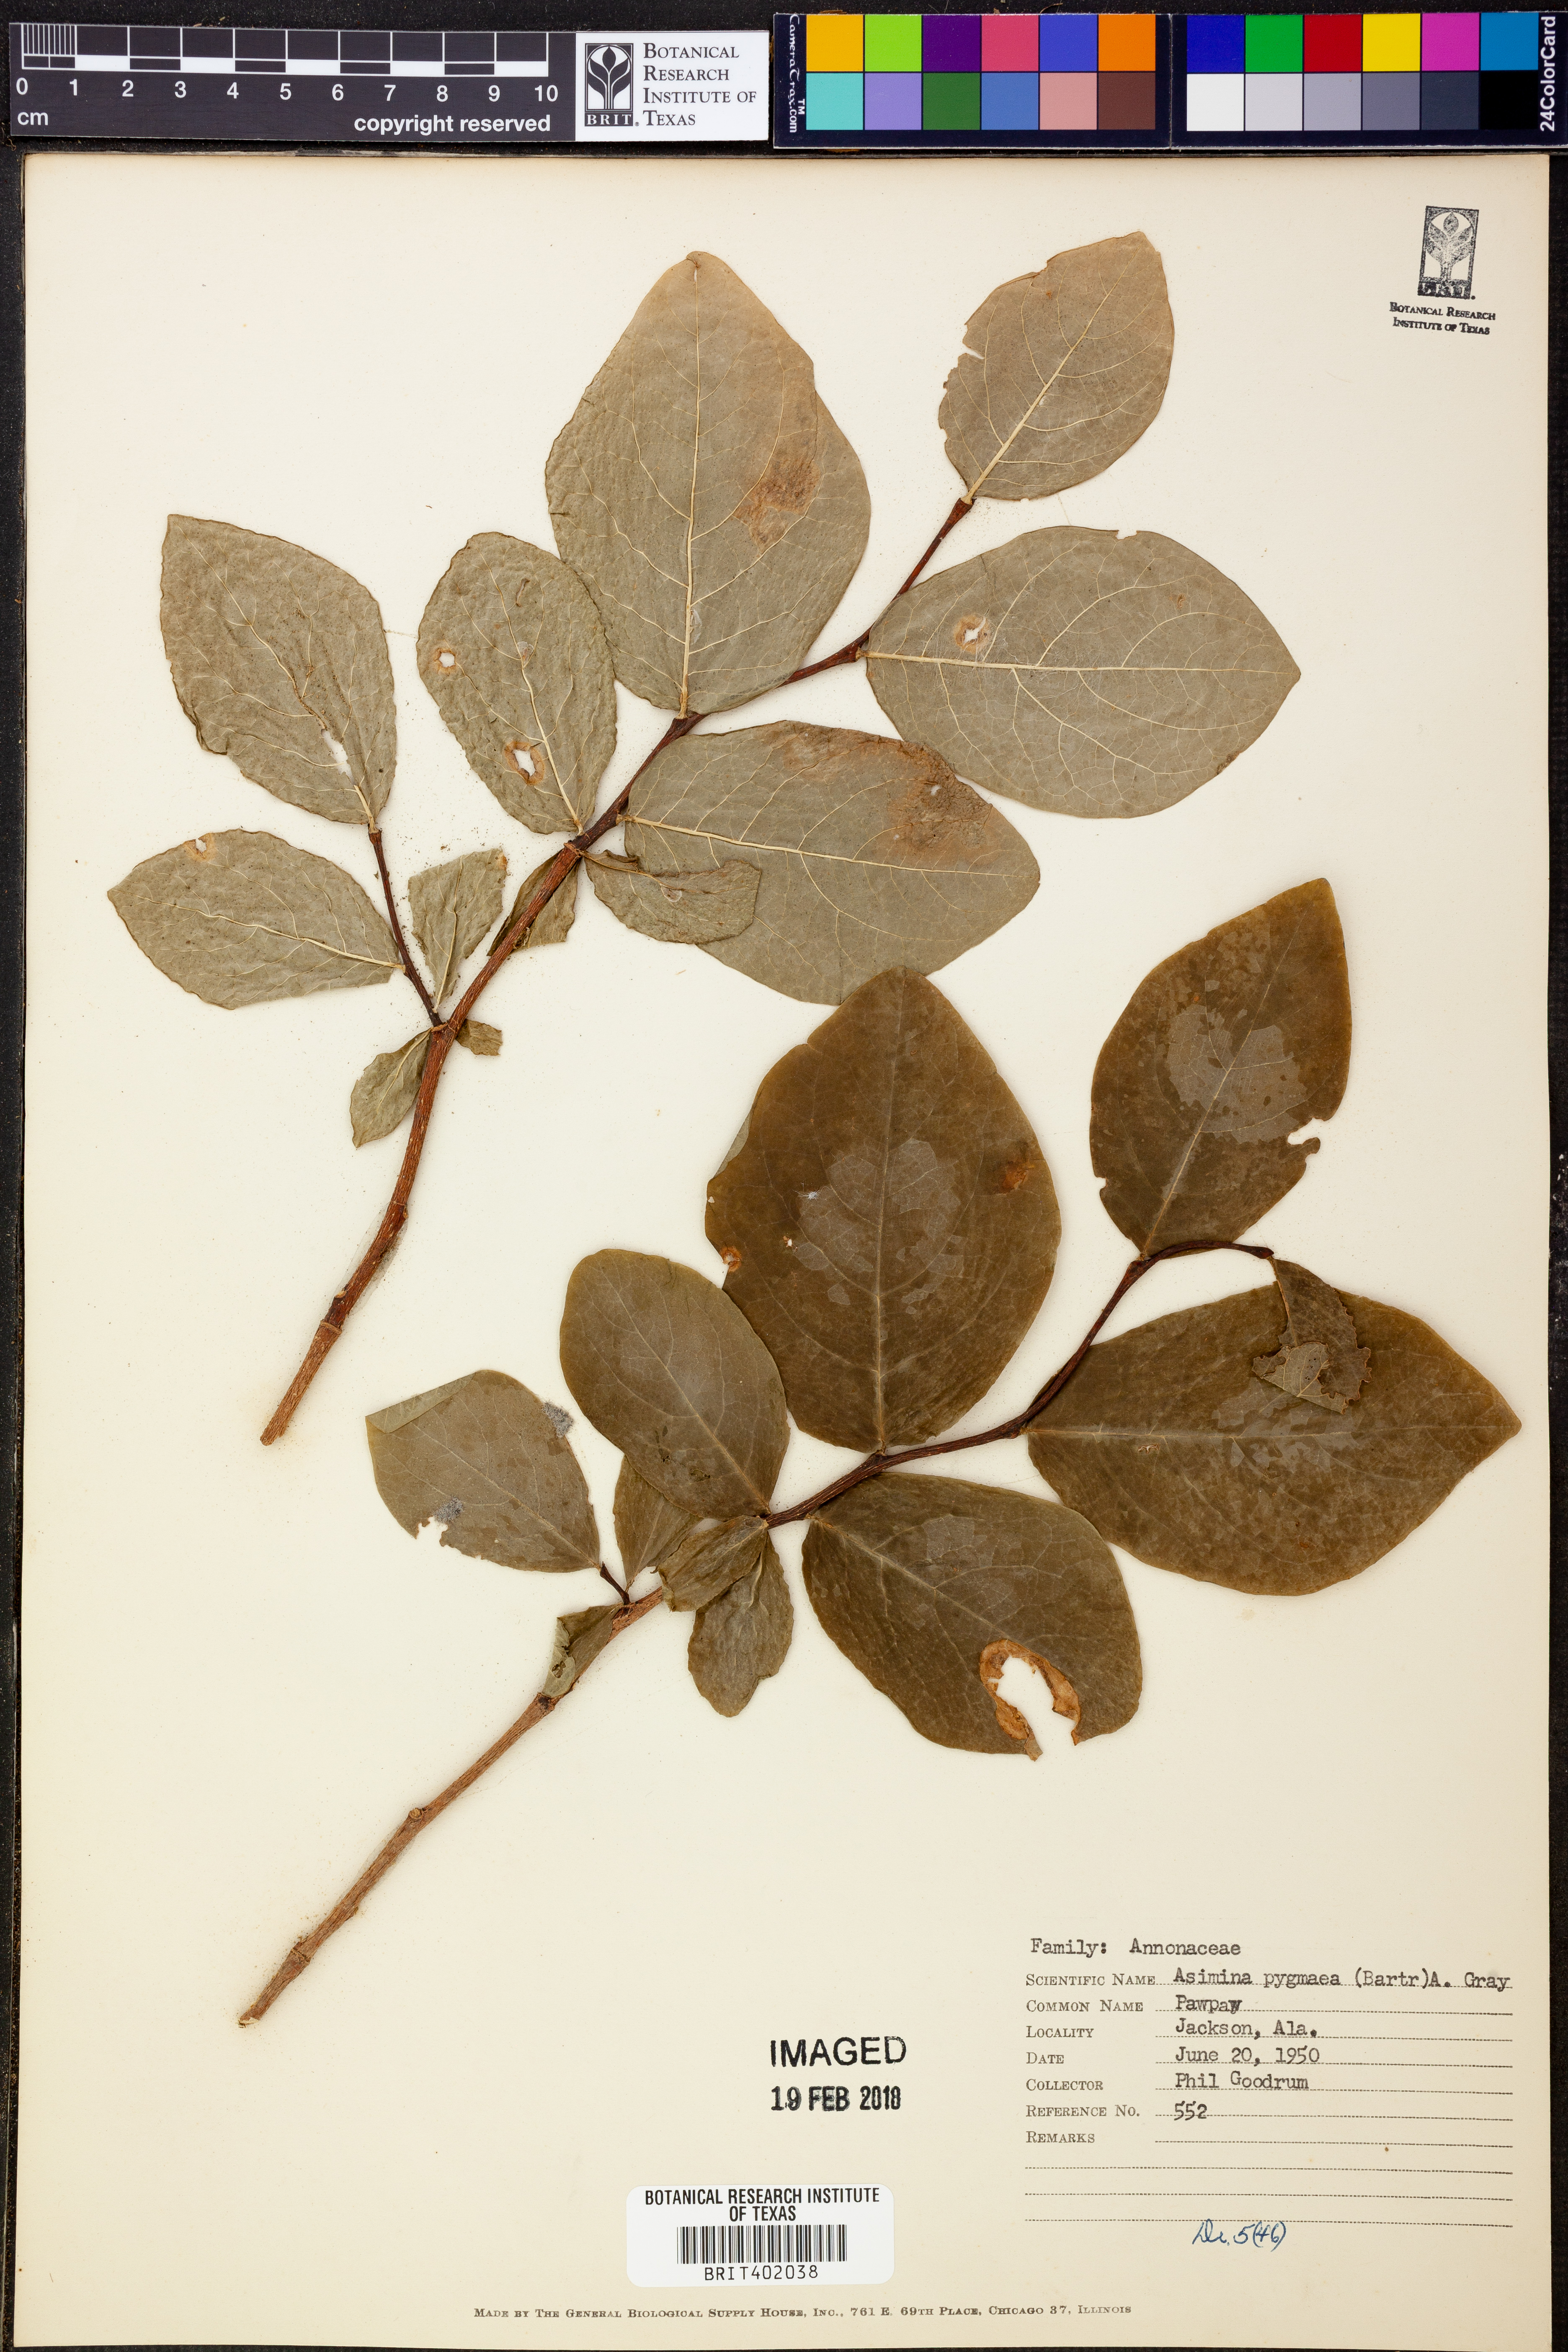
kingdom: Plantae
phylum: Tracheophyta
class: Magnoliopsida
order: Magnoliales
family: Annonaceae
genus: Asimina
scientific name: Asimina pygmaea
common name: Dwarf pawpaw
